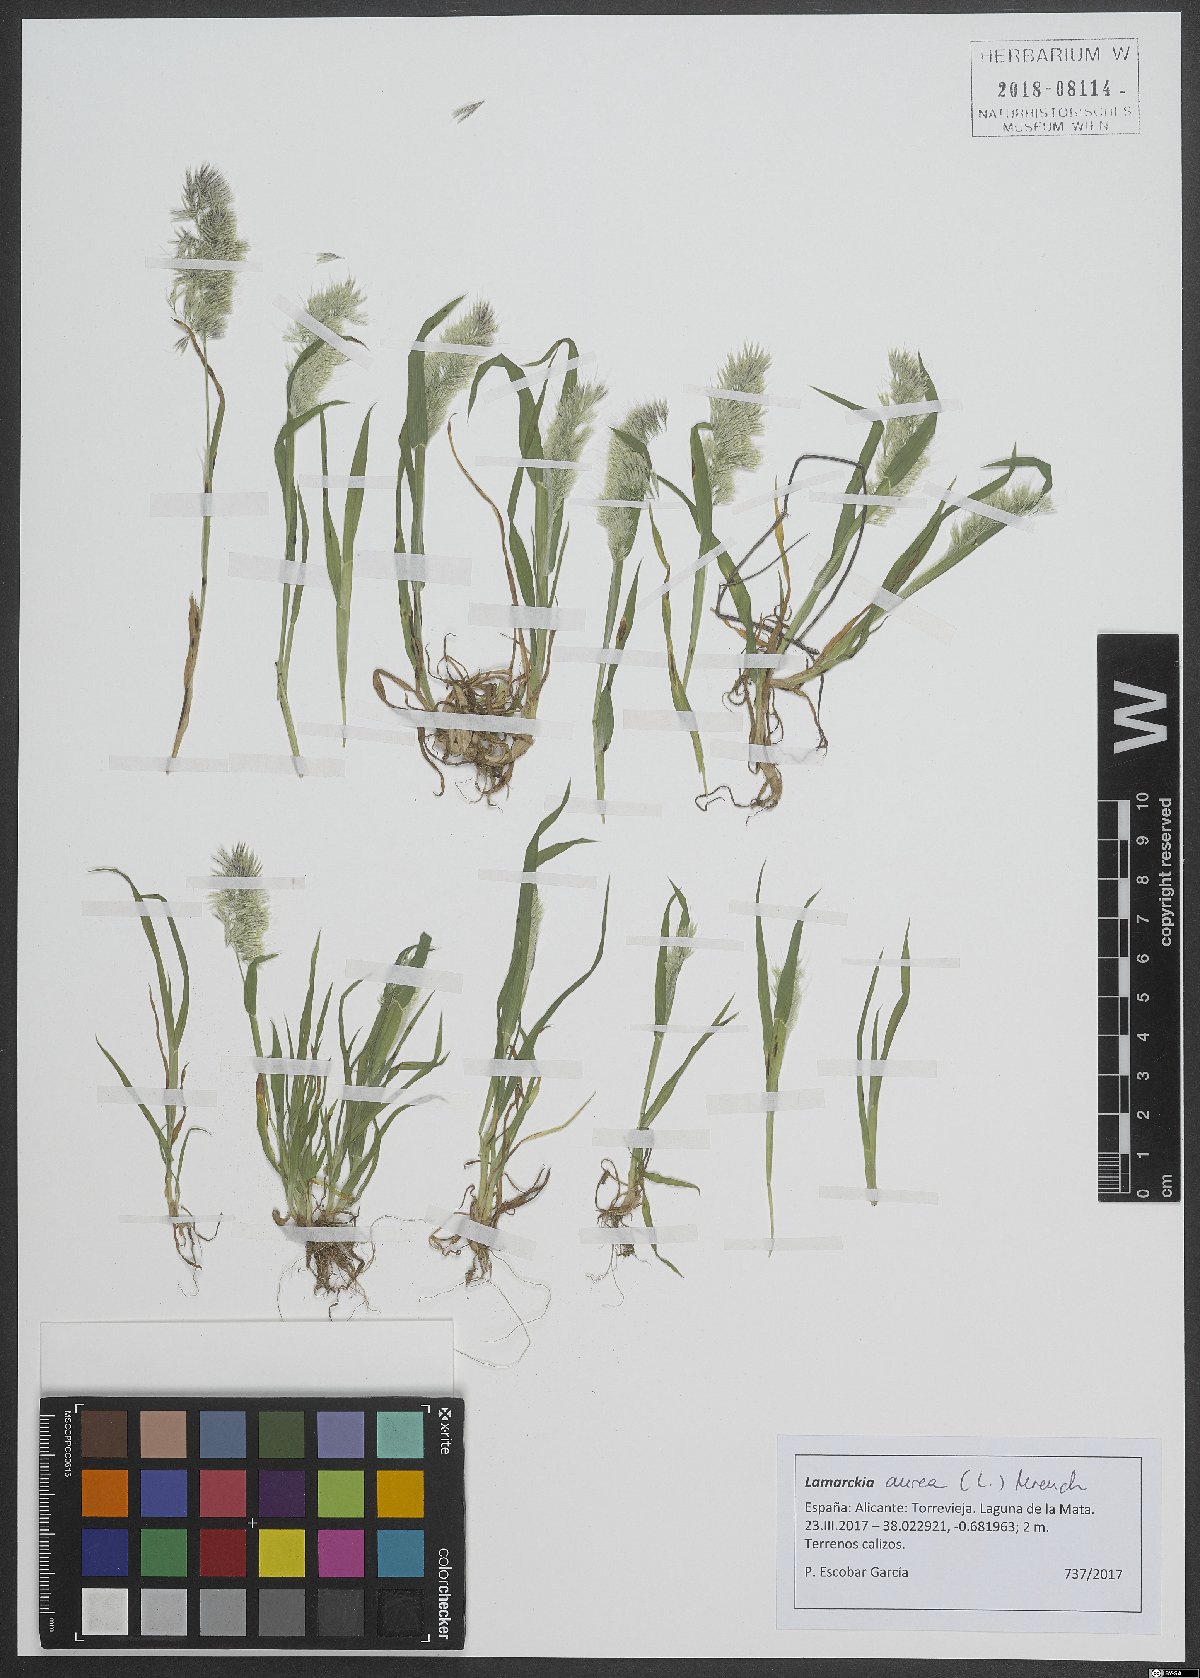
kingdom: Plantae
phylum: Tracheophyta
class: Liliopsida
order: Poales
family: Poaceae
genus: Lamarckia
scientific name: Lamarckia aurea
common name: Golden dog's-tail
